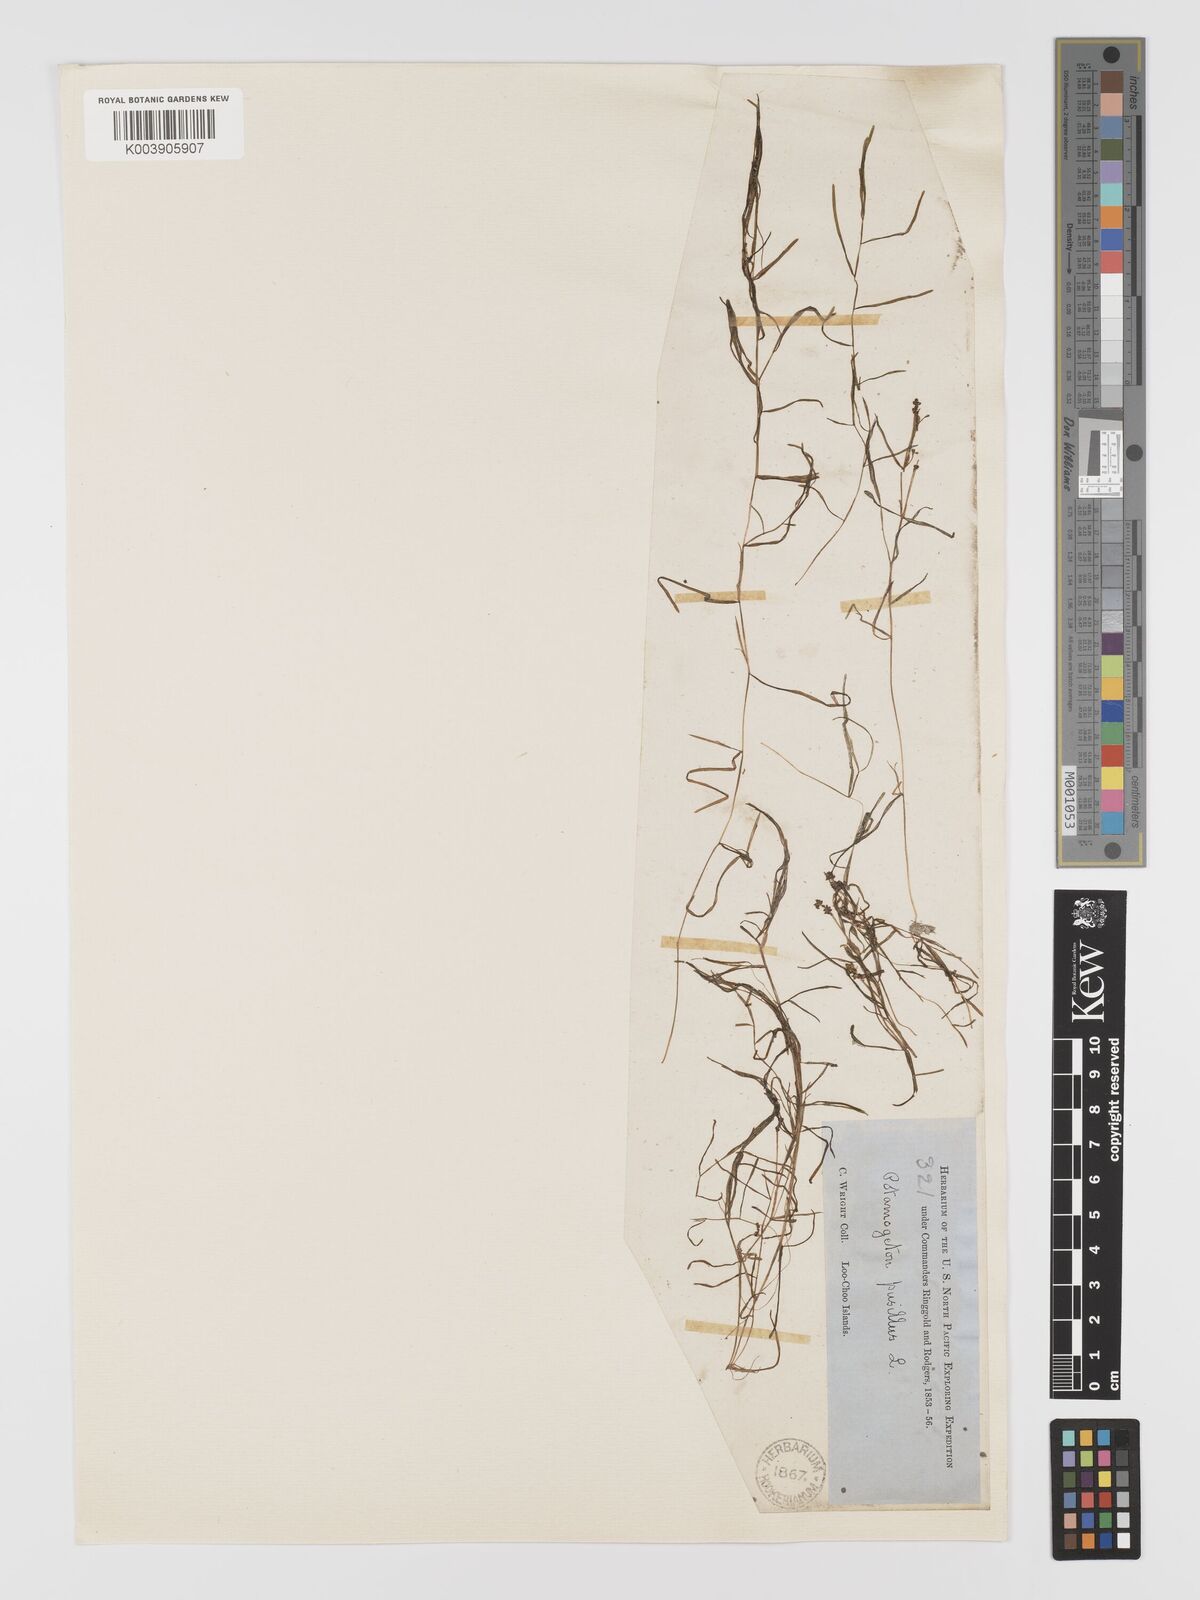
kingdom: Plantae
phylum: Tracheophyta
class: Liliopsida
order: Alismatales
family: Potamogetonaceae
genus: Potamogeton
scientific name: Potamogeton pusillus
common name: Lesser pondweed
